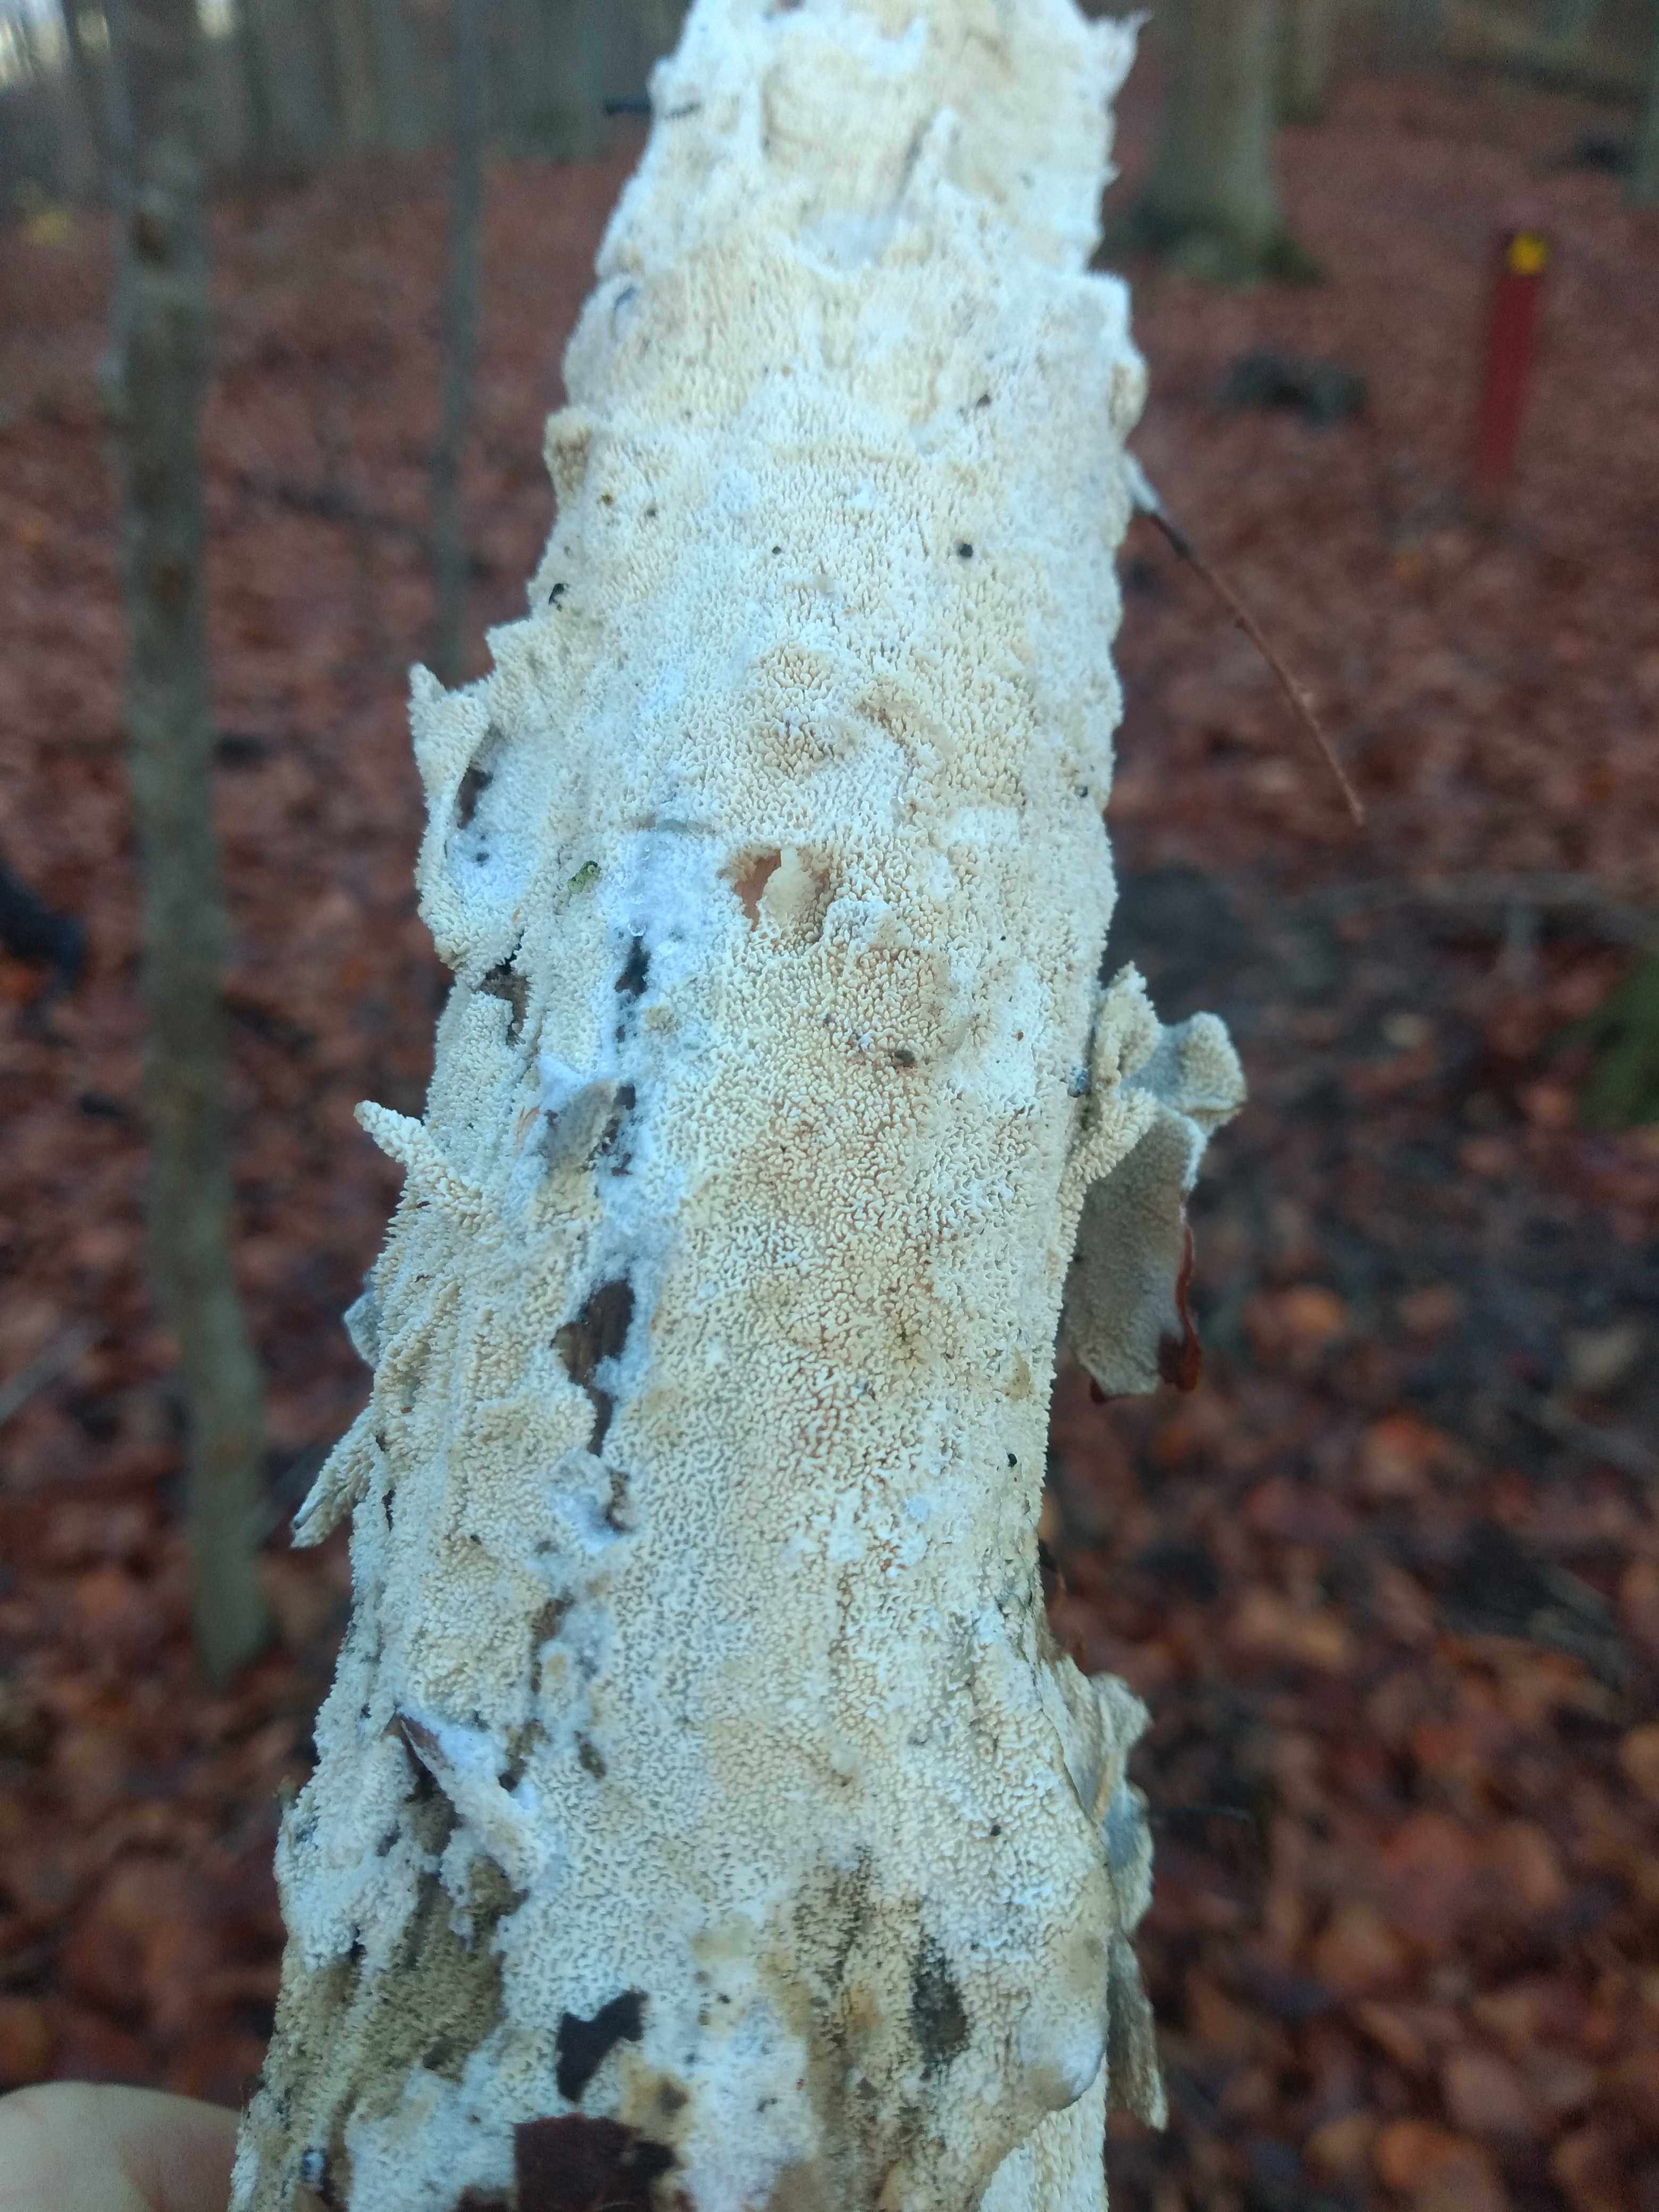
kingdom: Fungi
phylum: Basidiomycota
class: Agaricomycetes
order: Hymenochaetales
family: Schizoporaceae
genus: Schizopora
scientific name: Schizopora paradoxa
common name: hvid tandsvamp
